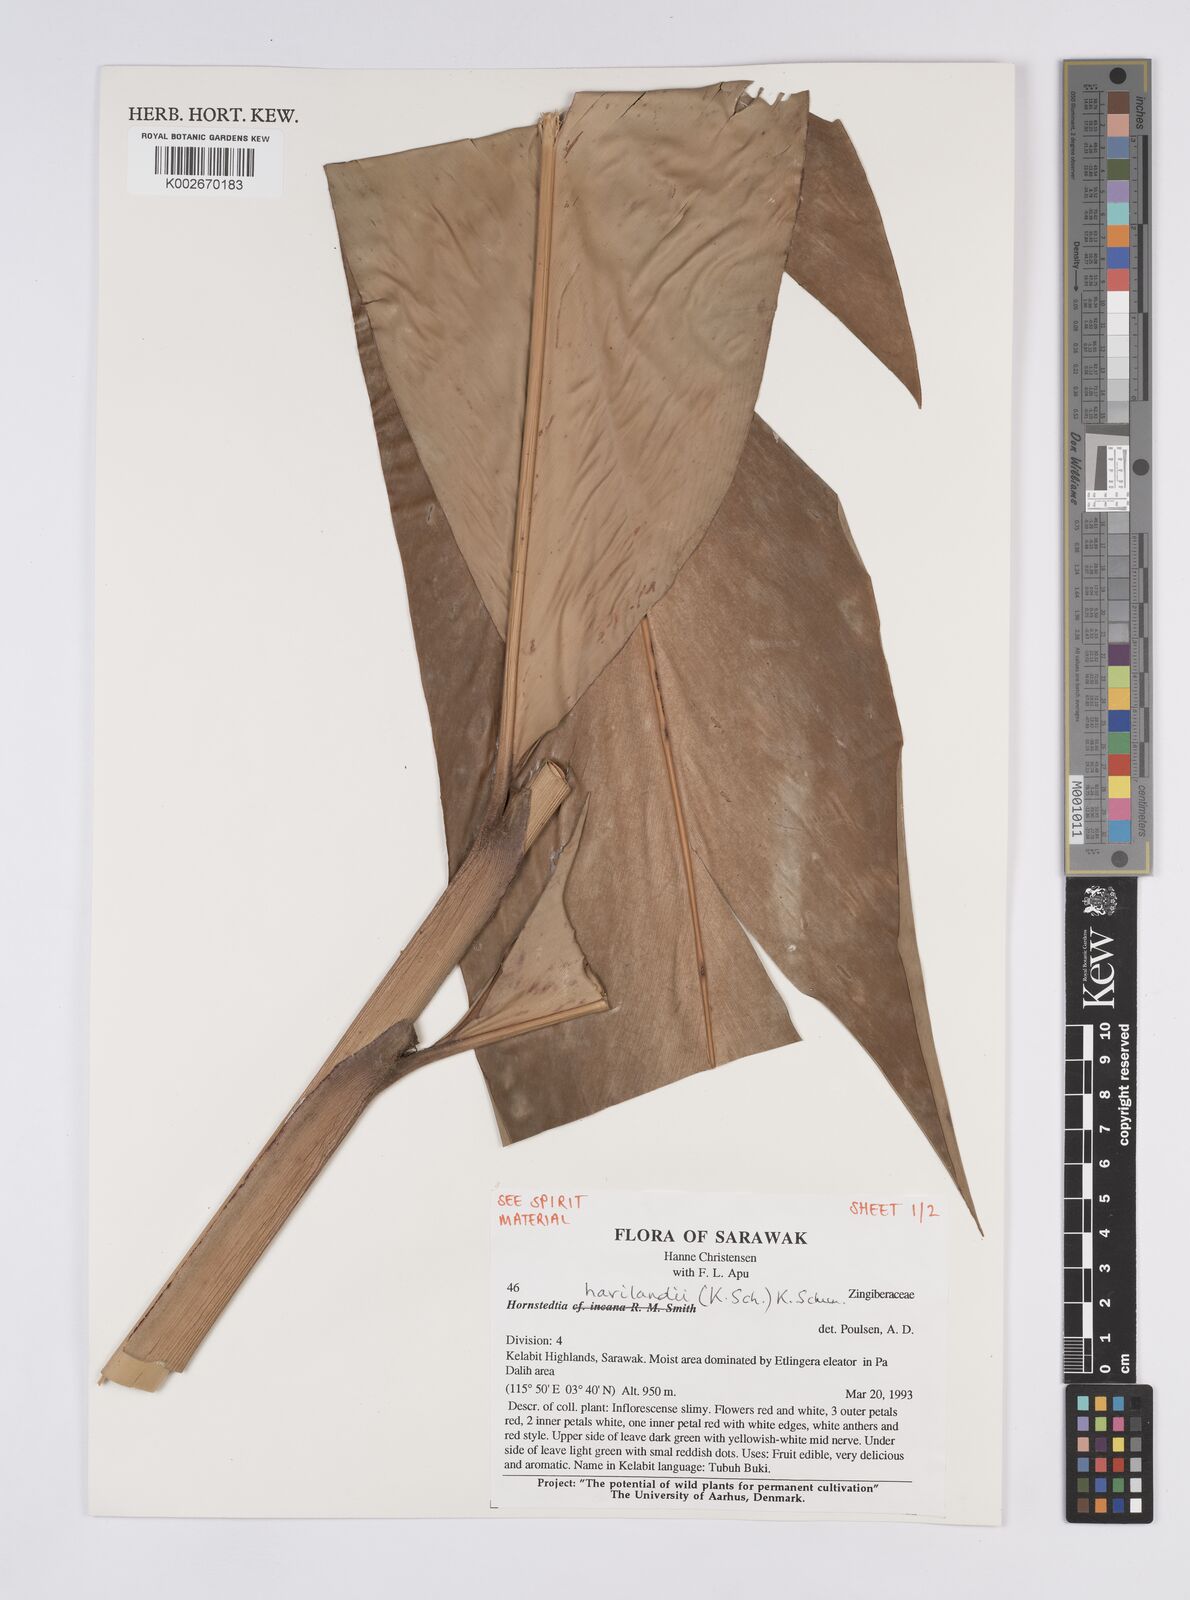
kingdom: Plantae
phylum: Tracheophyta
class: Liliopsida
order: Zingiberales
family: Zingiberaceae
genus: Hornstedtia
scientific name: Hornstedtia havilandii
